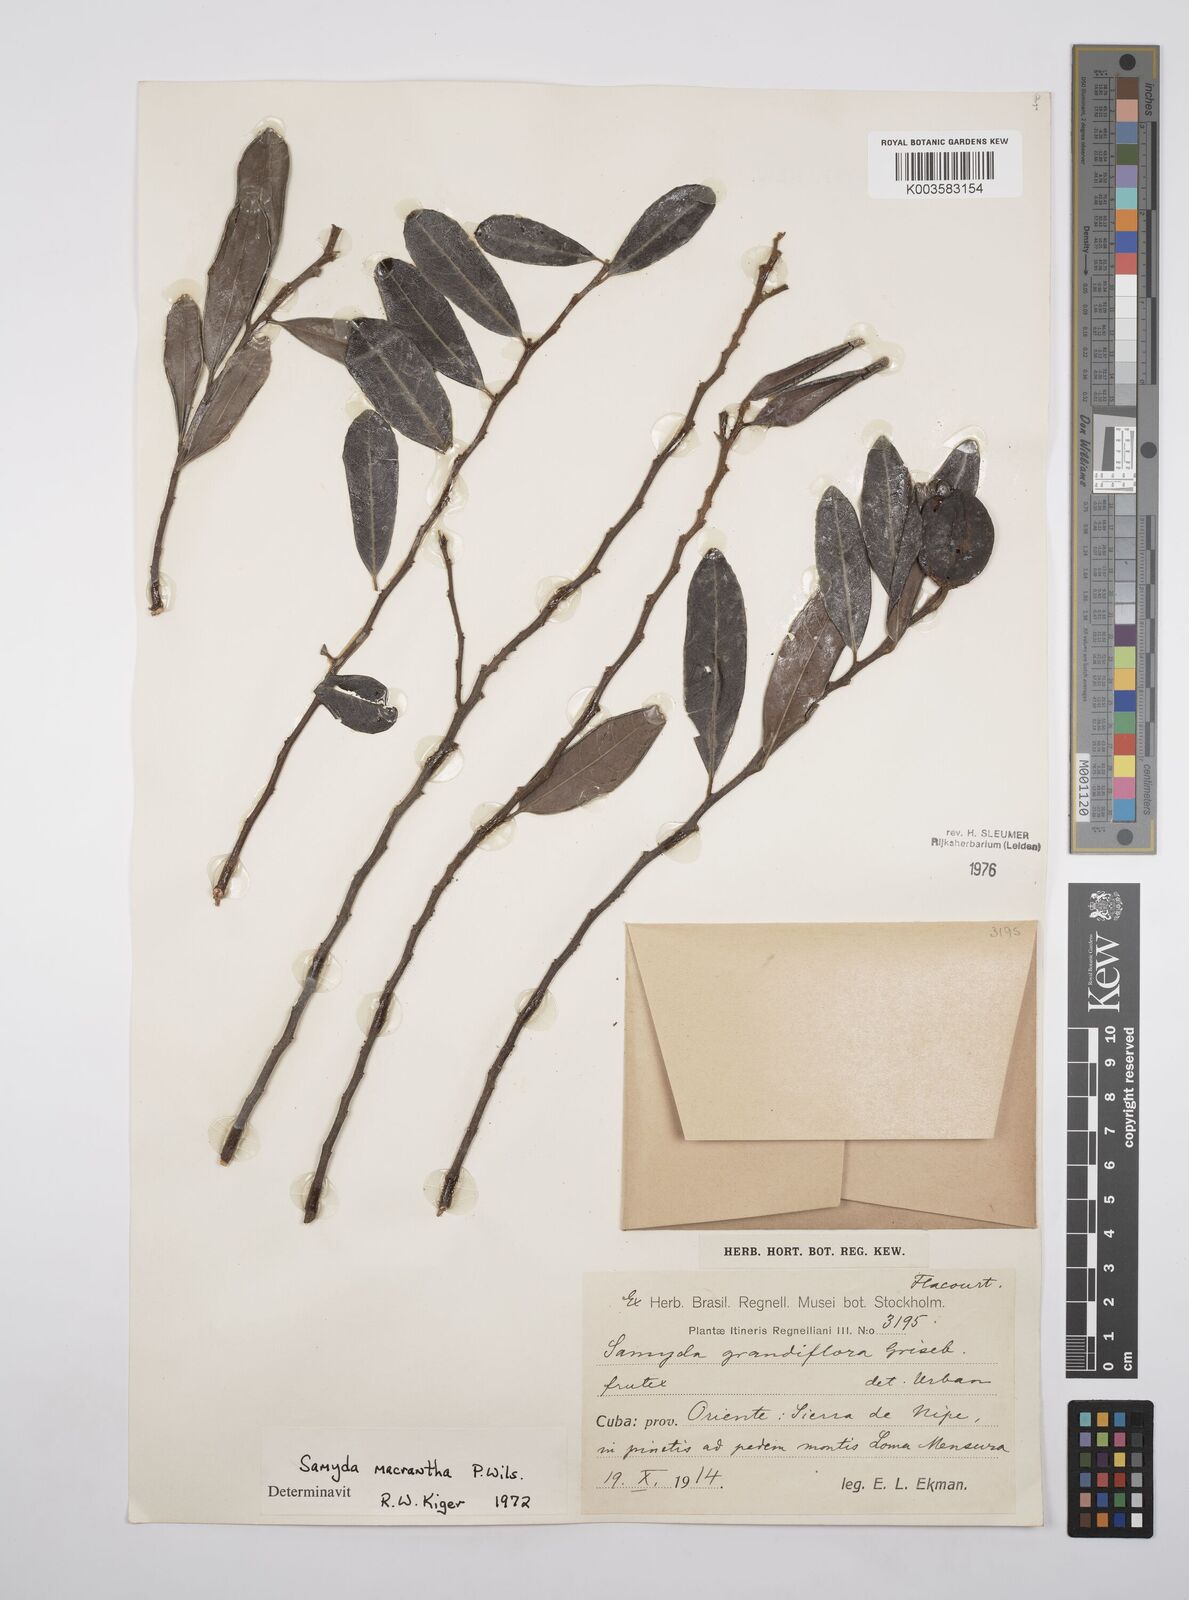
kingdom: Plantae
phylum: Tracheophyta
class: Magnoliopsida
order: Malpighiales
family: Salicaceae
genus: Casearia
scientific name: Casearia dolichanthera
